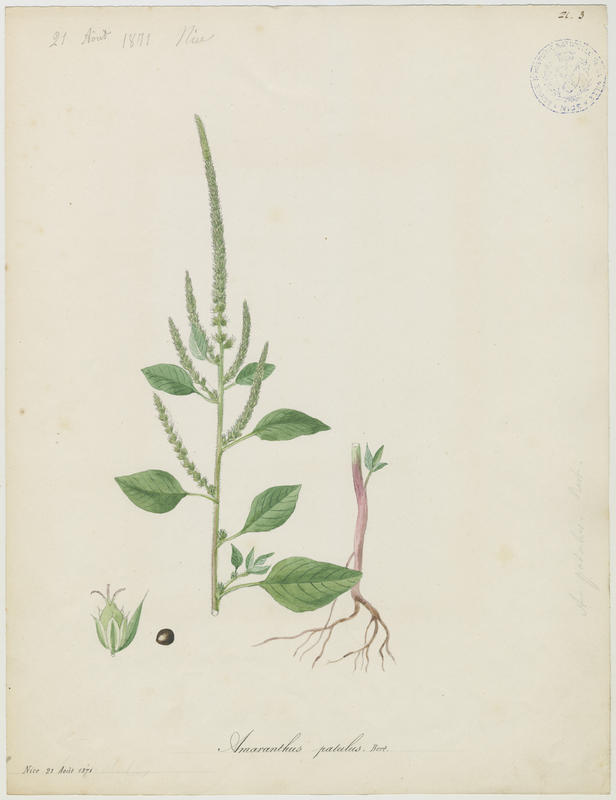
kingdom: Plantae
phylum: Tracheophyta
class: Magnoliopsida
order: Caryophyllales
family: Amaranthaceae
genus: Amaranthus
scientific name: Amaranthus hybridus
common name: Green amaranth
